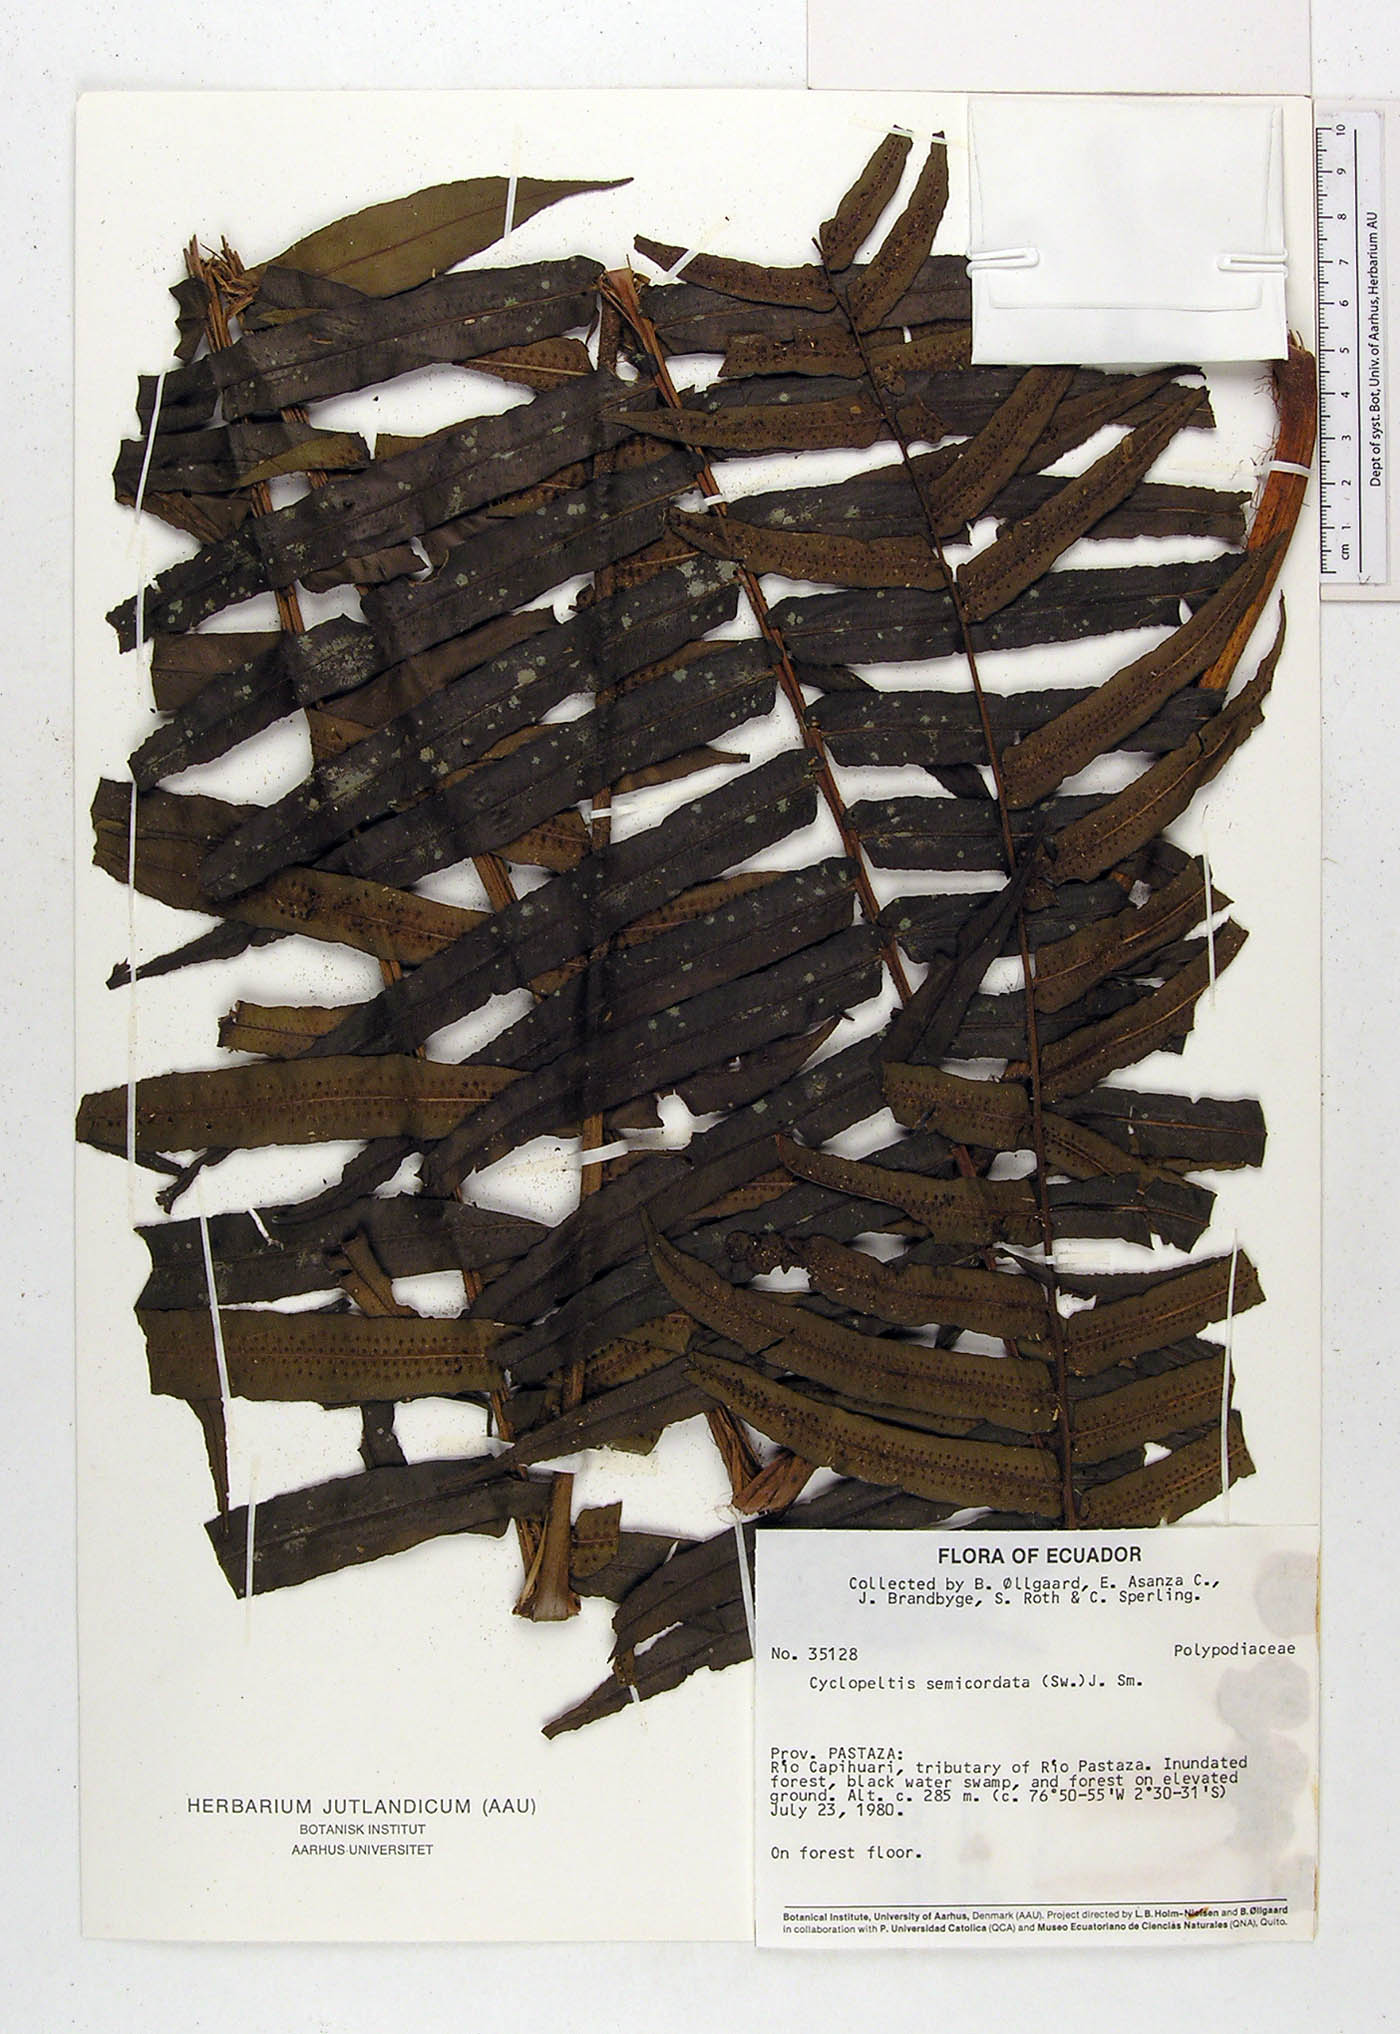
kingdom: Plantae
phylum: Tracheophyta
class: Polypodiopsida
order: Polypodiales
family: Lomariopsidaceae
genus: Cyclopeltis
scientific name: Cyclopeltis semicordata
